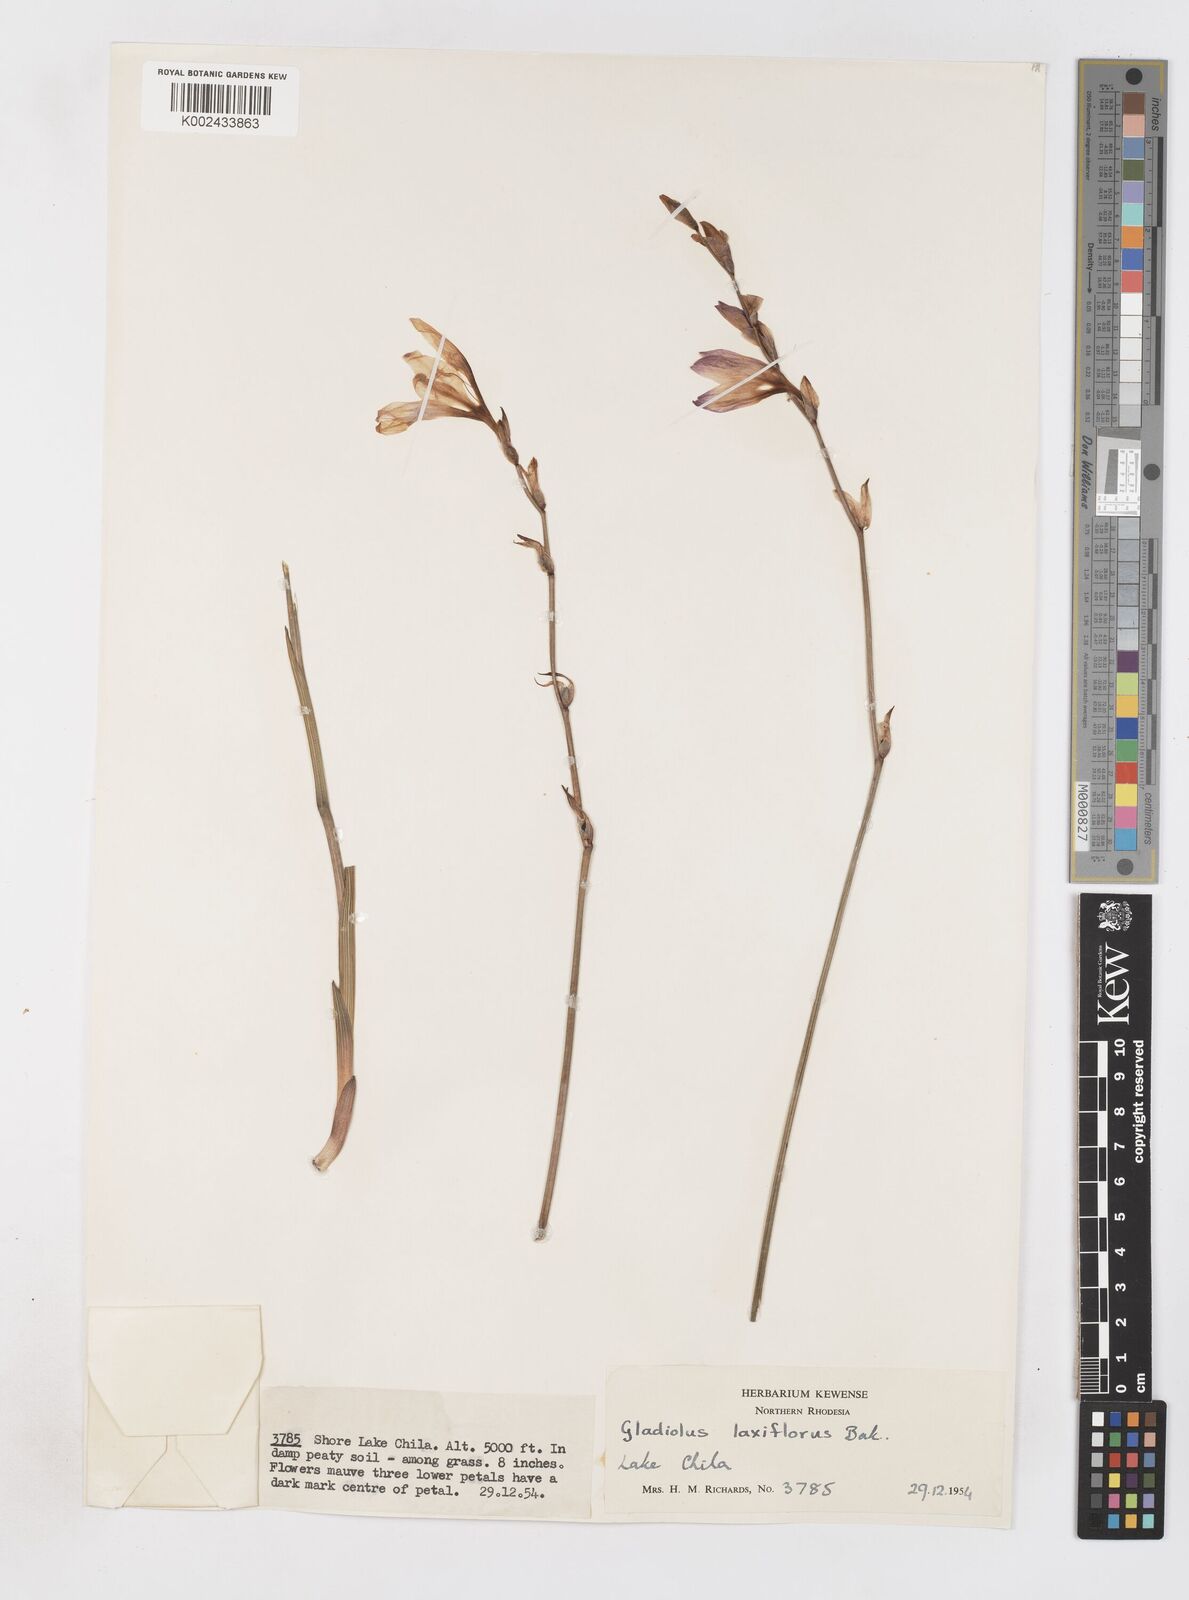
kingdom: Plantae
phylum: Tracheophyta
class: Liliopsida
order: Asparagales
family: Iridaceae
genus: Gladiolus
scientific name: Gladiolus laxiflorus
